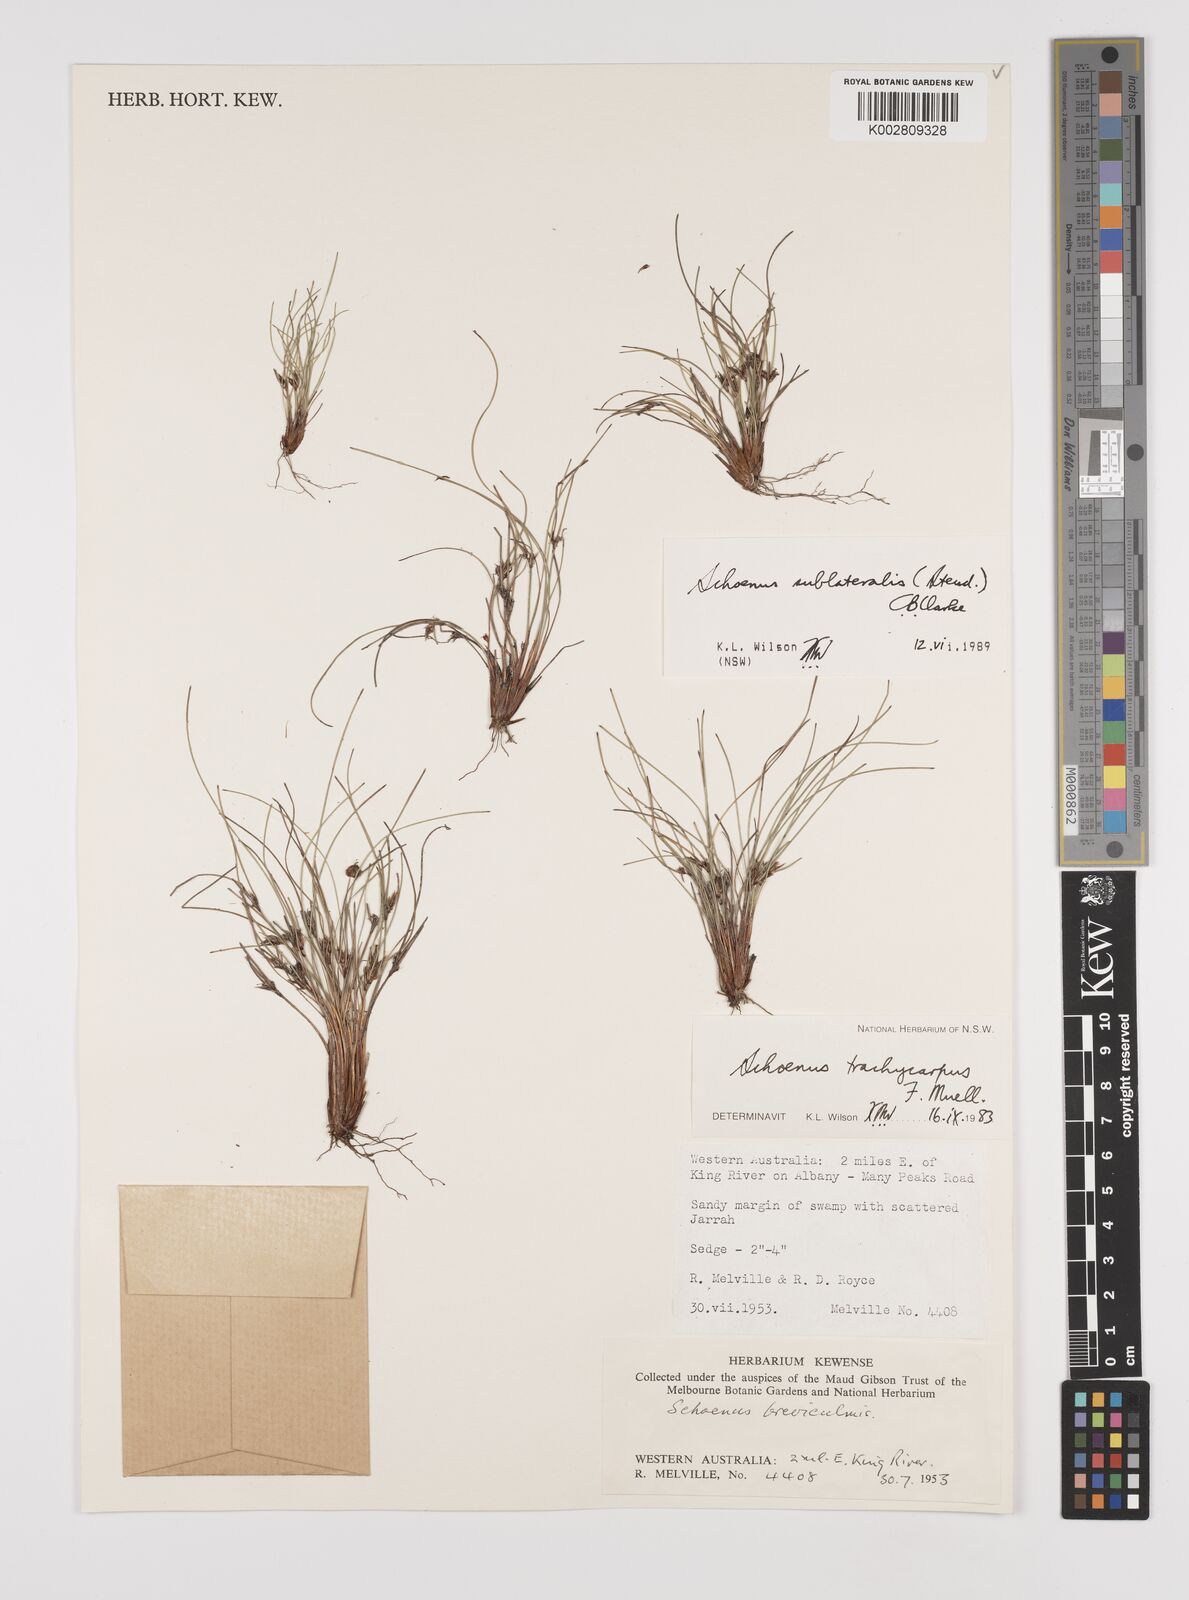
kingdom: Plantae
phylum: Tracheophyta
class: Liliopsida
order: Poales
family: Cyperaceae
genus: Schoenus
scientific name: Schoenus sublateralis
